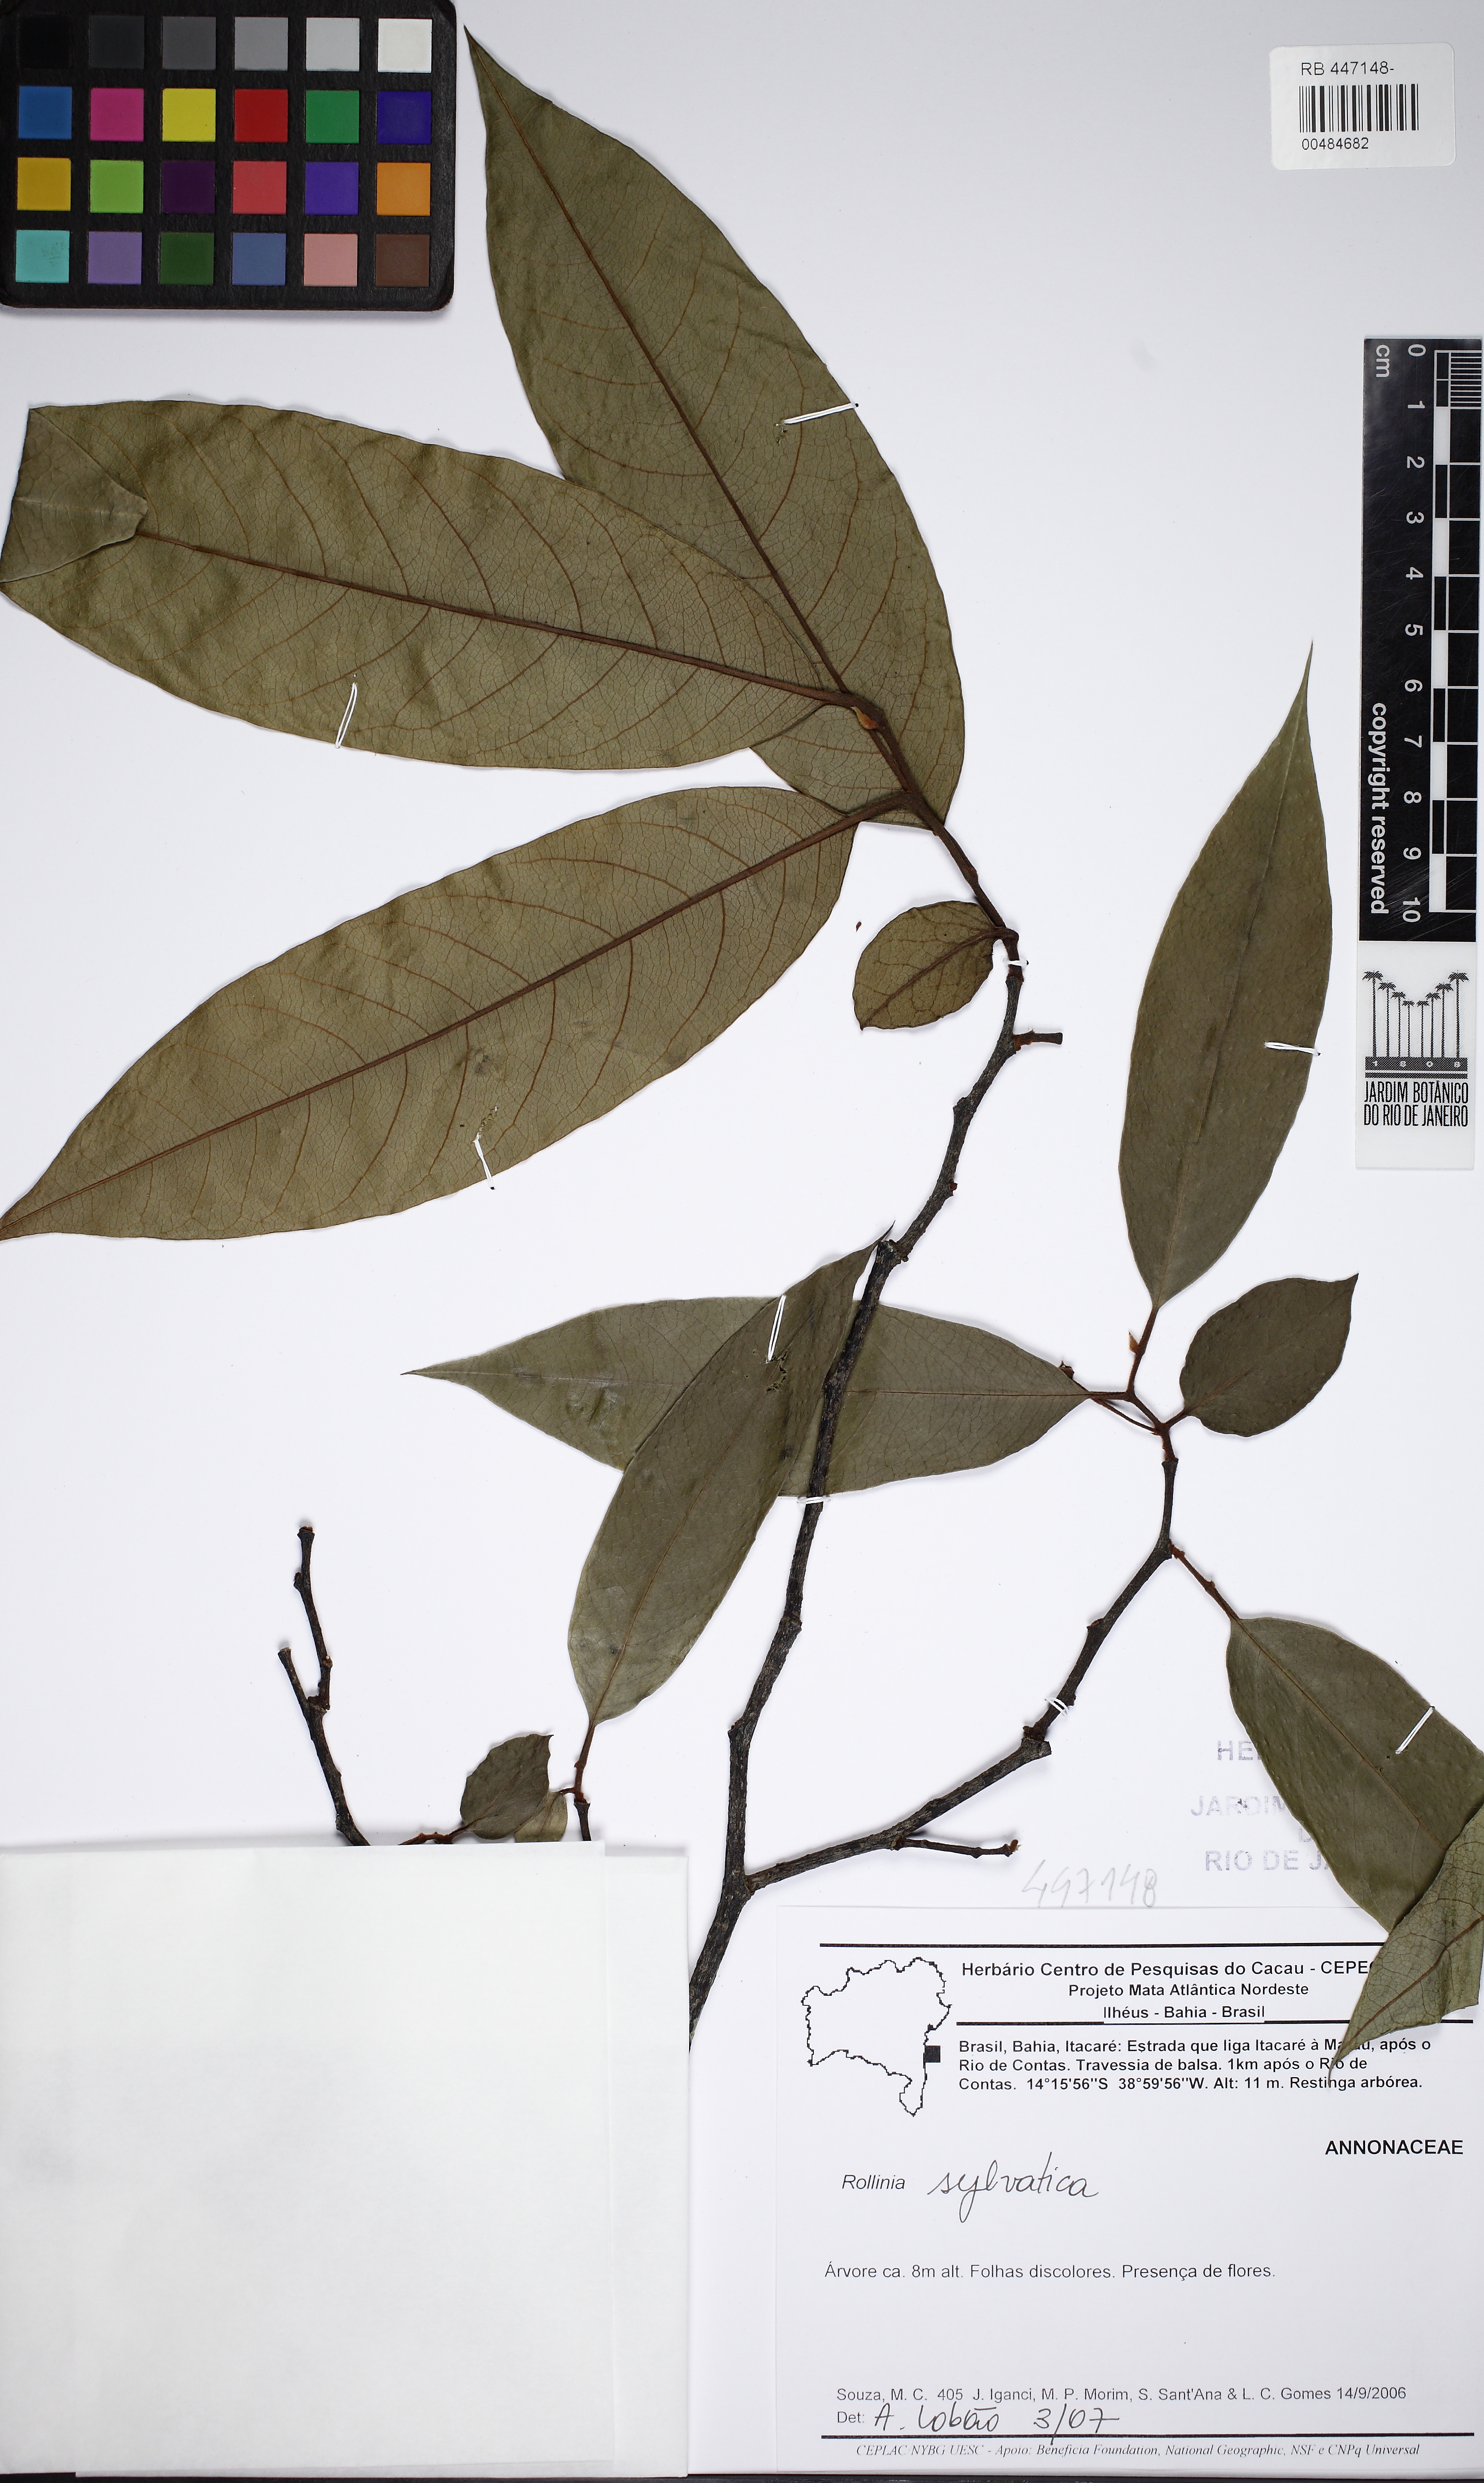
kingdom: Plantae
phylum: Tracheophyta
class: Magnoliopsida
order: Magnoliales
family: Annonaceae
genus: Annona
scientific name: Annona sylvatica
